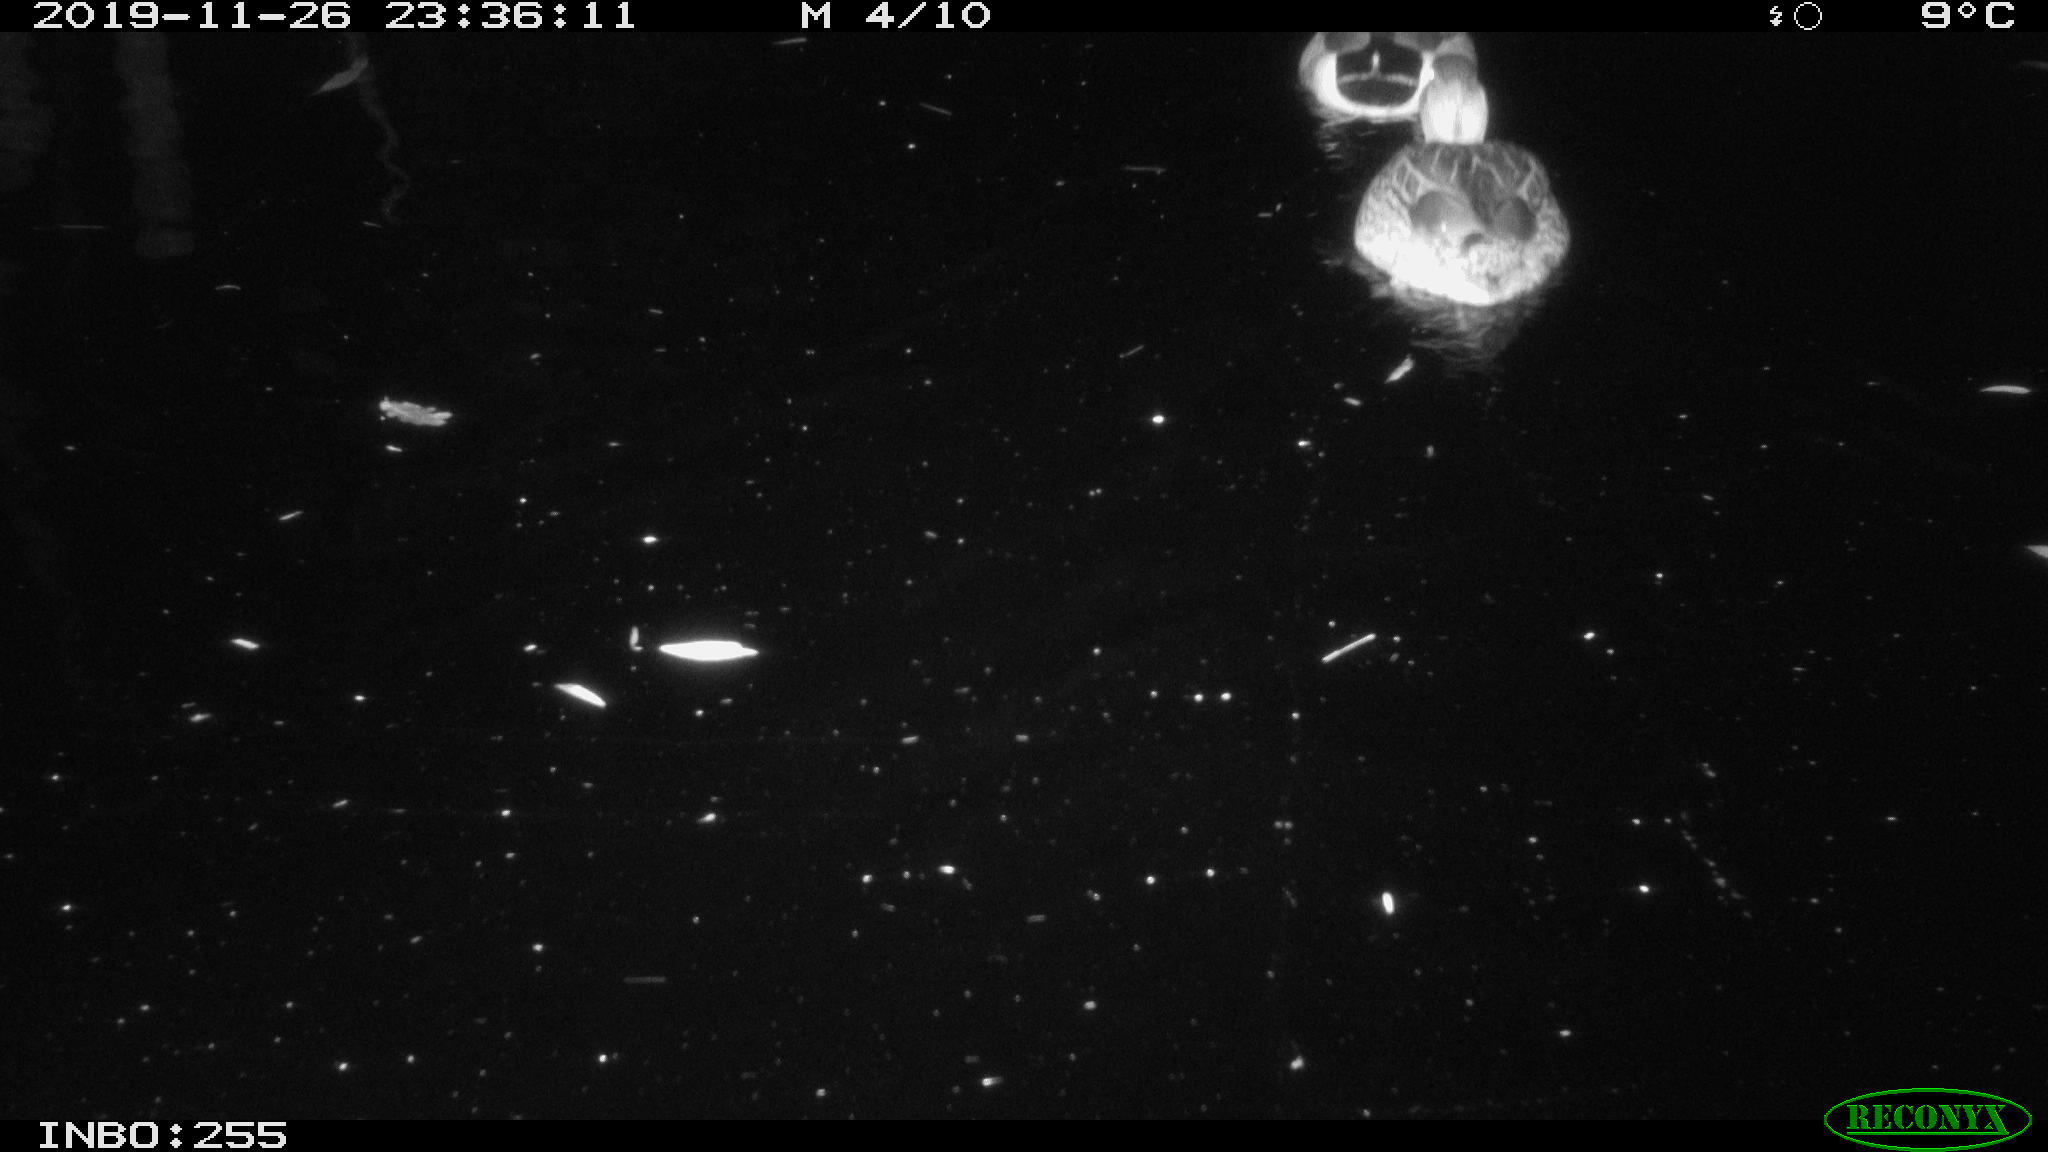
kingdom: Animalia
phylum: Chordata
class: Aves
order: Anseriformes
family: Anatidae
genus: Anas
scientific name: Anas platyrhynchos
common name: Mallard
